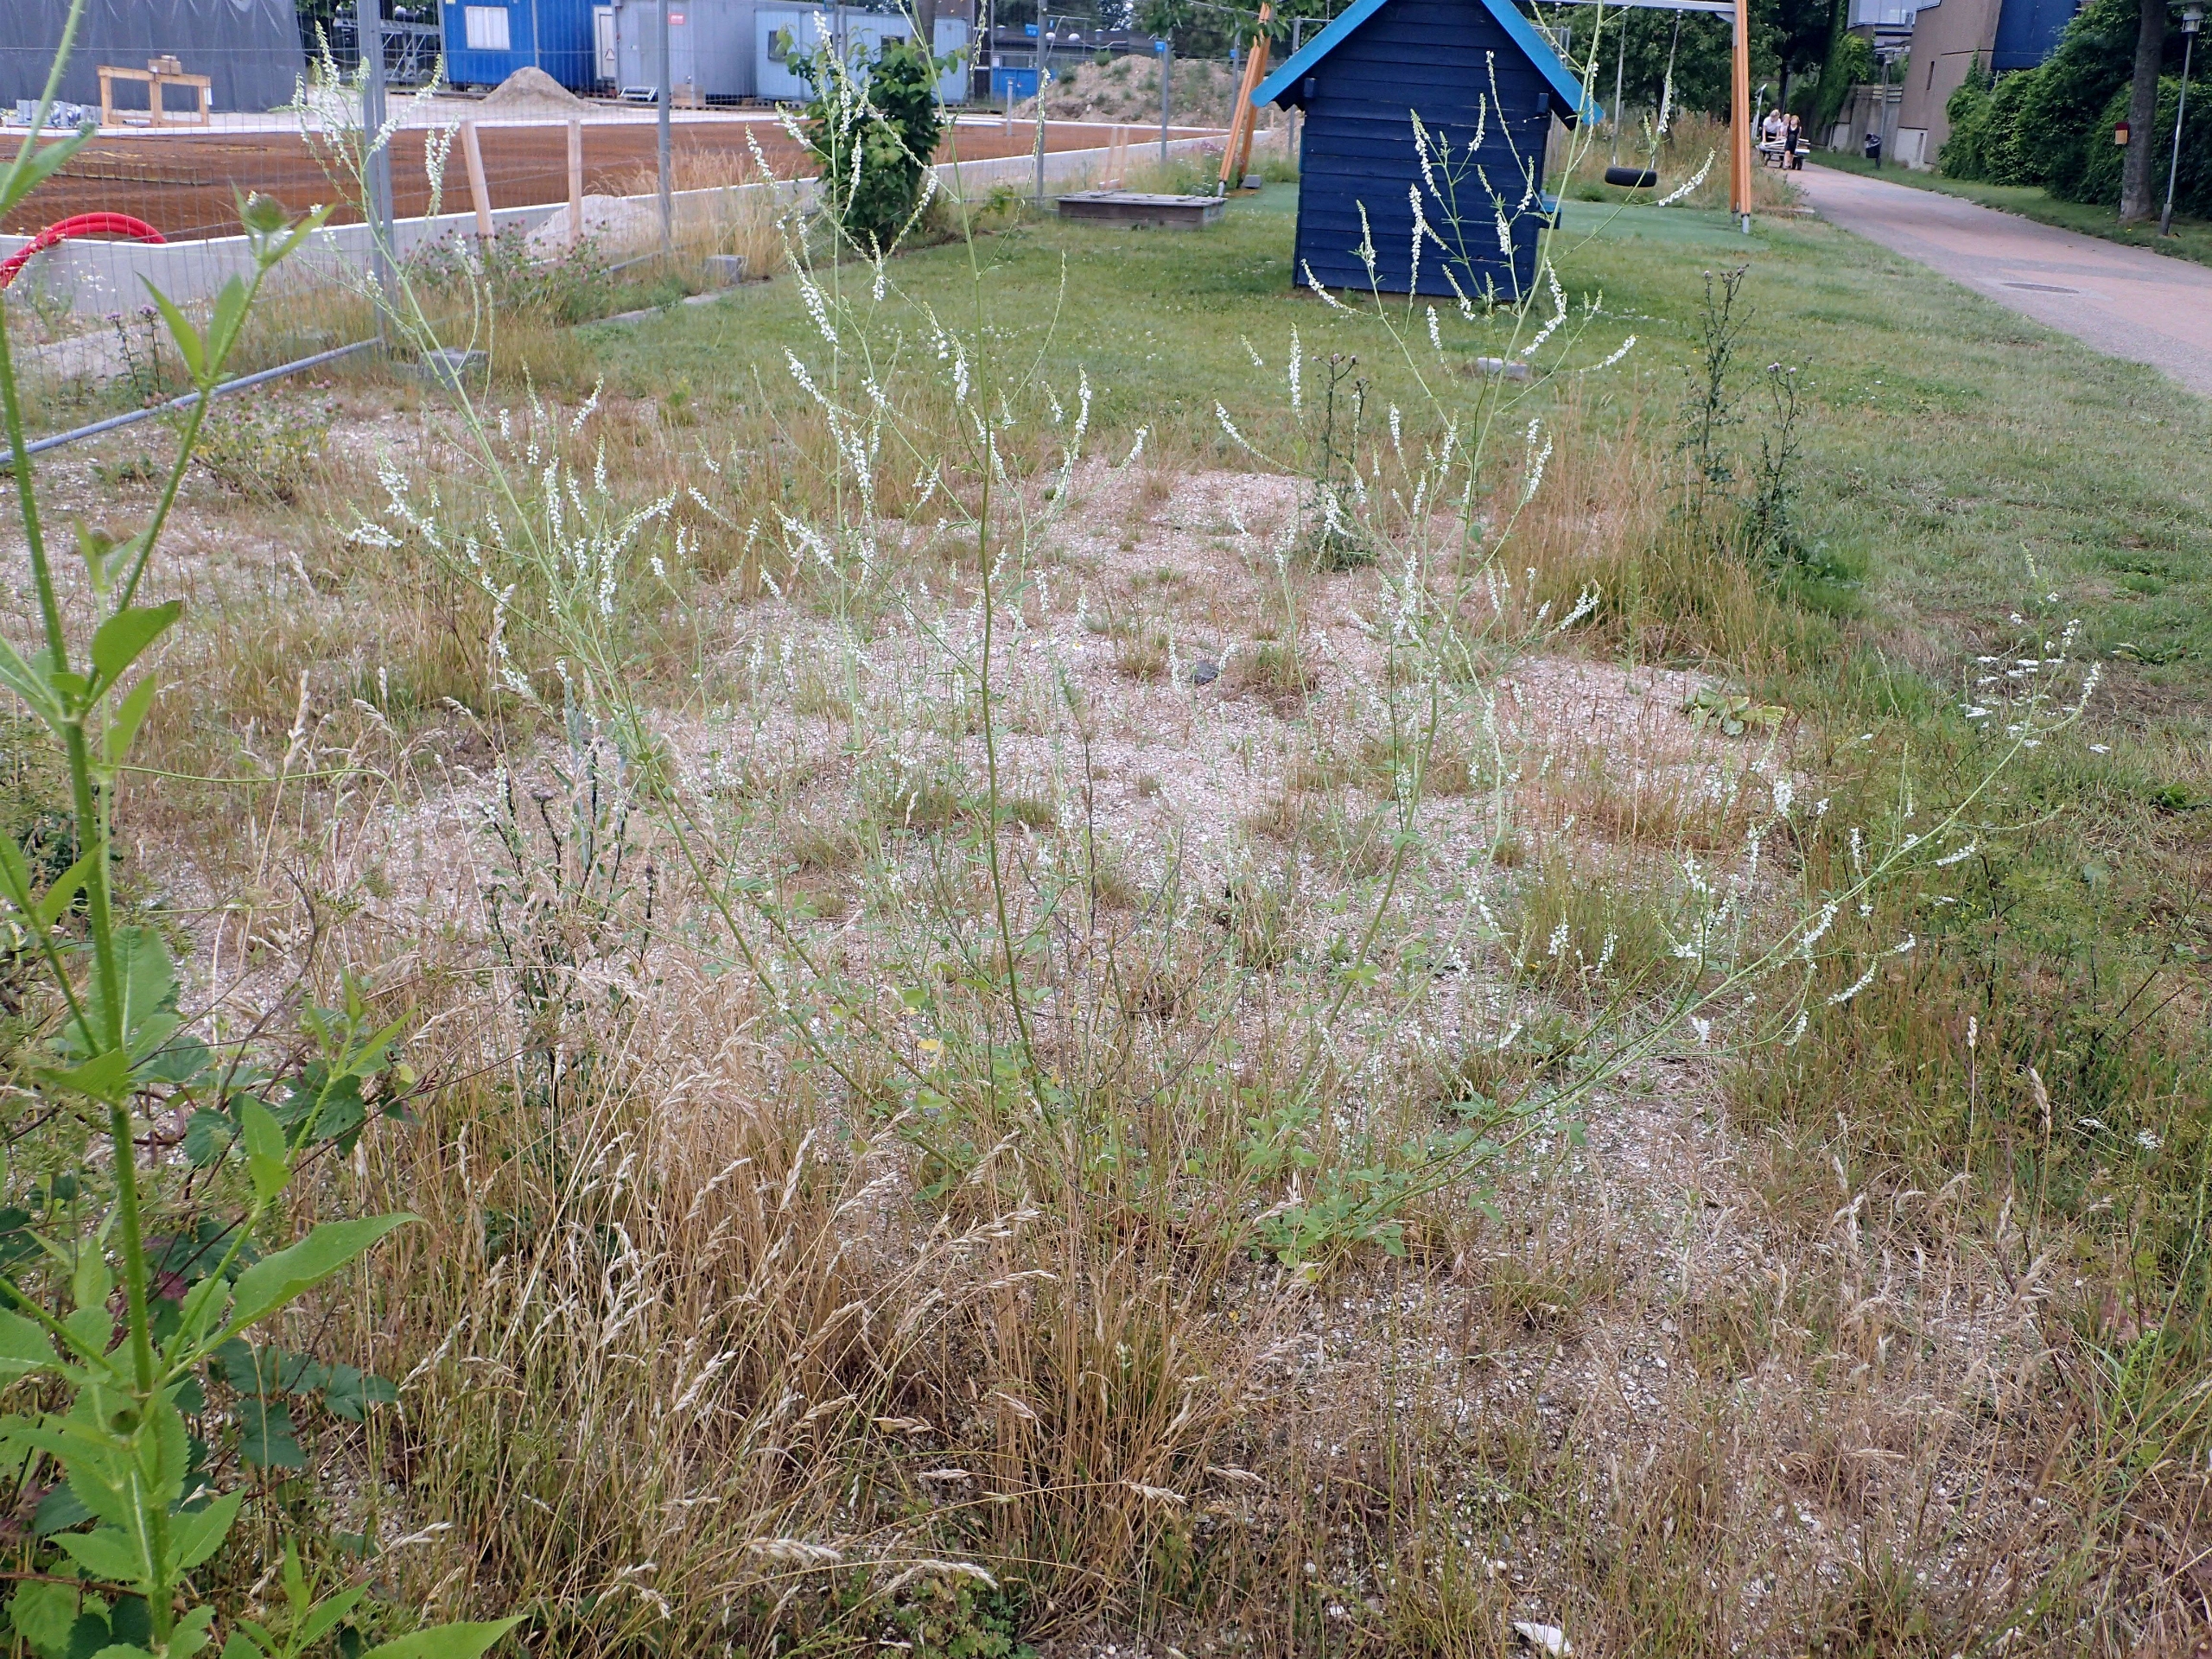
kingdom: Plantae
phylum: Tracheophyta
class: Magnoliopsida
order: Fabales
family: Fabaceae
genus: Melilotus
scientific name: Melilotus albus
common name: Hvid stenkløver
